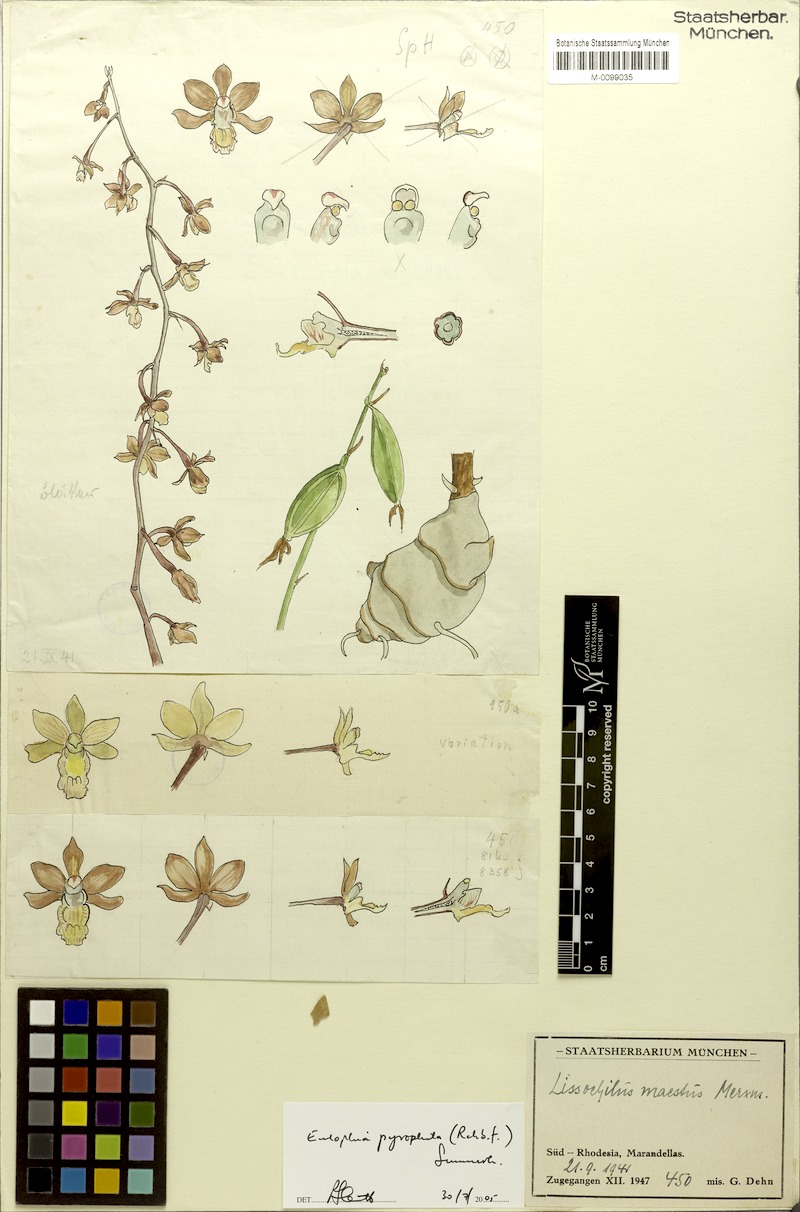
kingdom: Plantae
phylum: Tracheophyta
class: Liliopsida
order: Asparagales
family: Orchidaceae
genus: Eulophia
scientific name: Eulophia pyrophila
